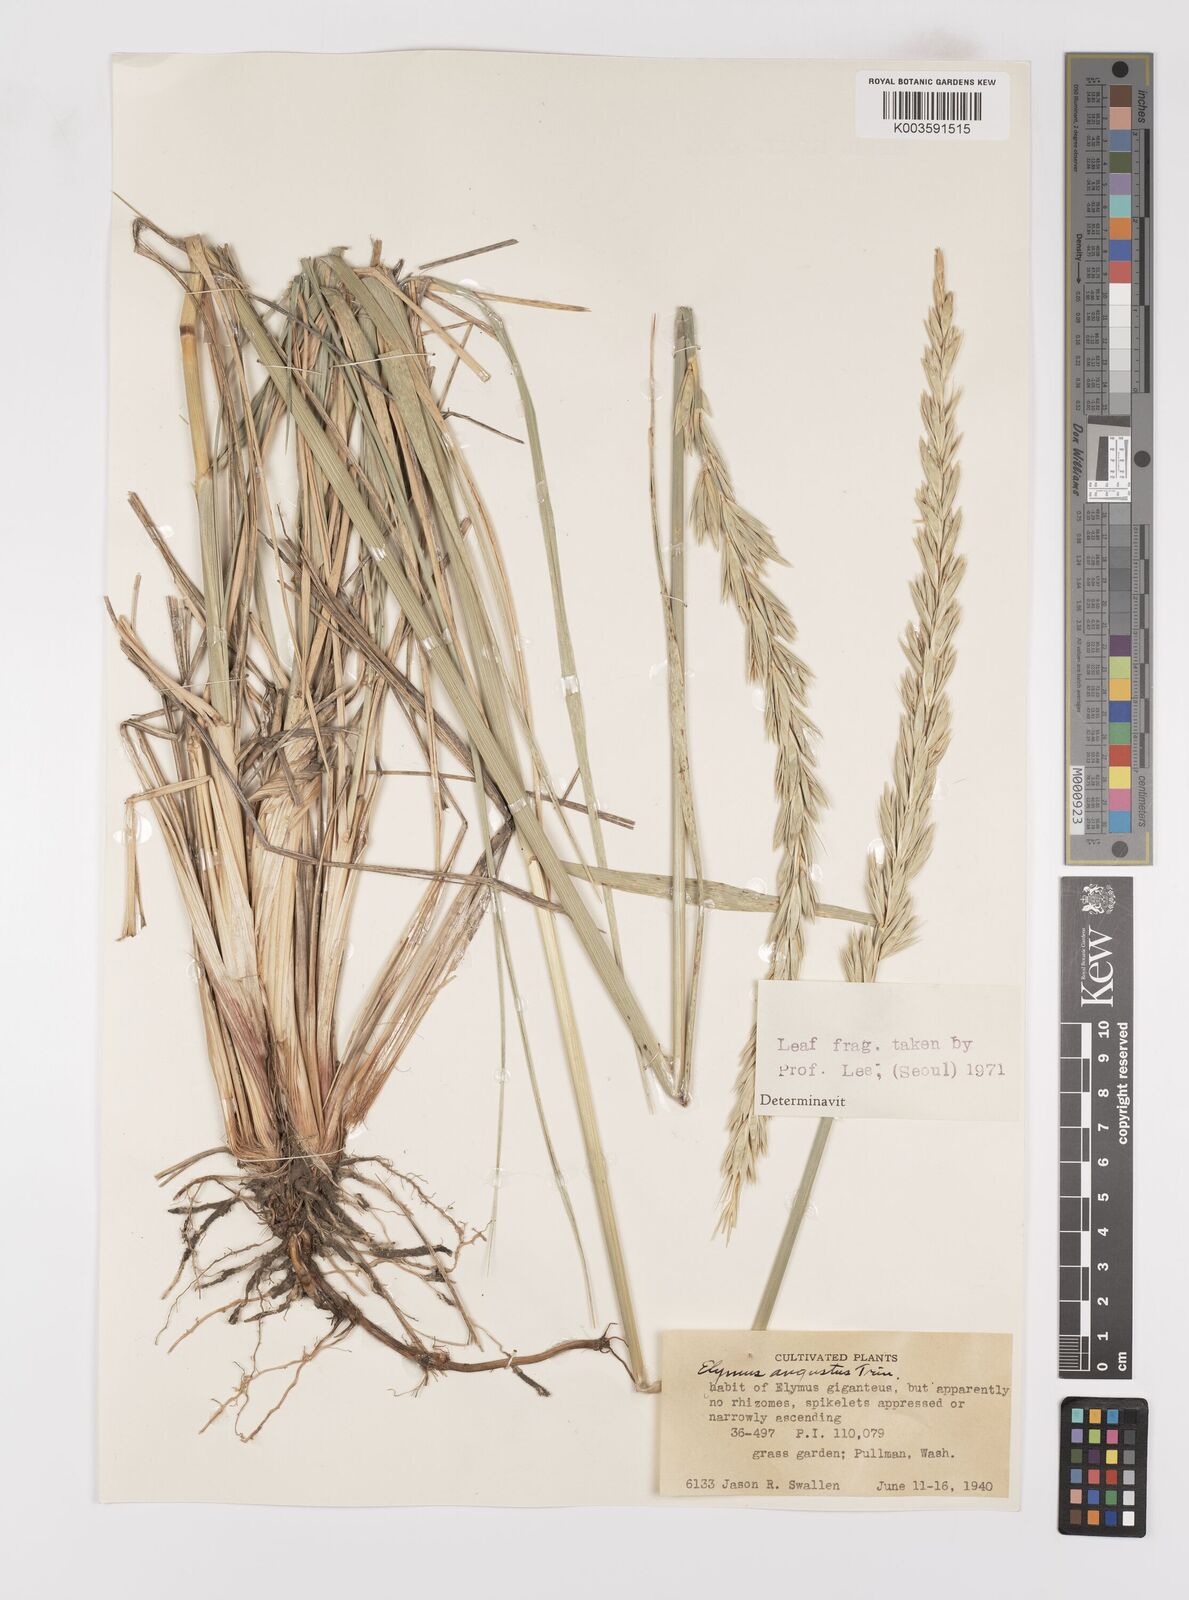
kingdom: Plantae
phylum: Tracheophyta
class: Liliopsida
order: Poales
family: Poaceae
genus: Leymus
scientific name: Leymus angustus
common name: Altai wildrye
